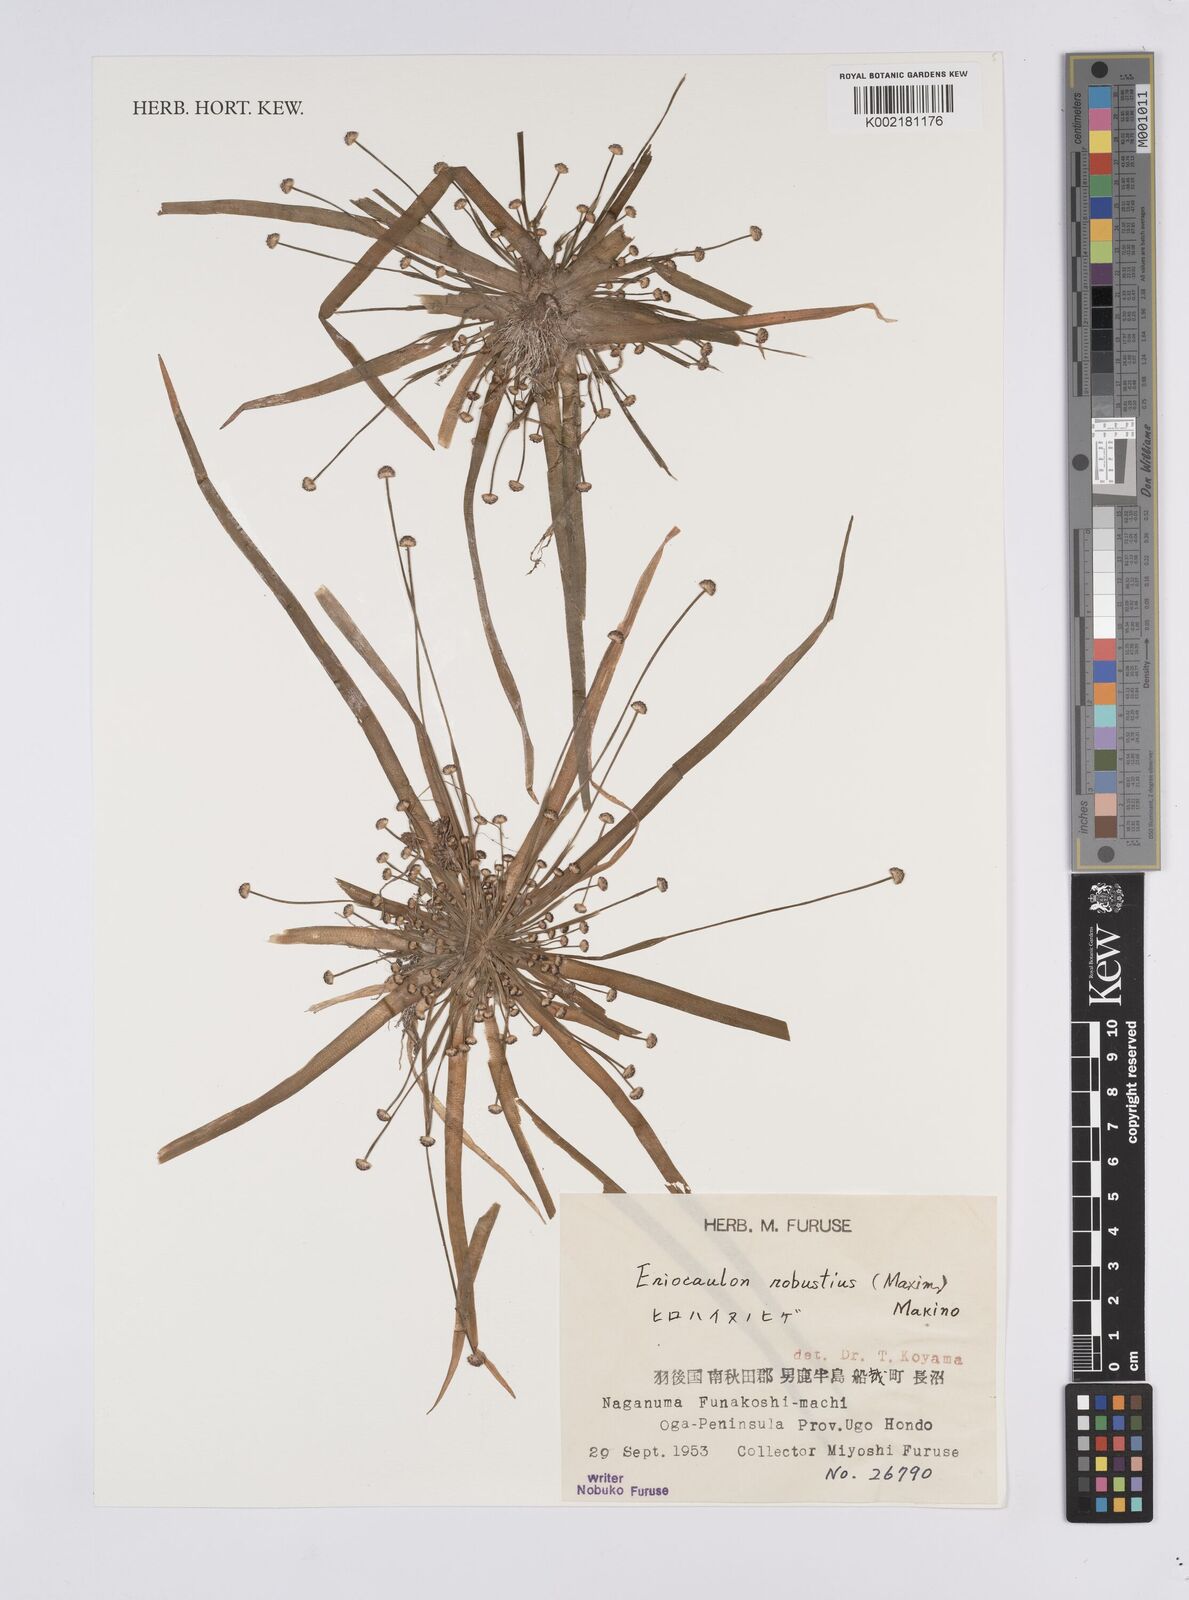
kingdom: Plantae
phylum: Tracheophyta
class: Liliopsida
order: Poales
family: Eriocaulaceae
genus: Eriocaulon
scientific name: Eriocaulon alpestre
